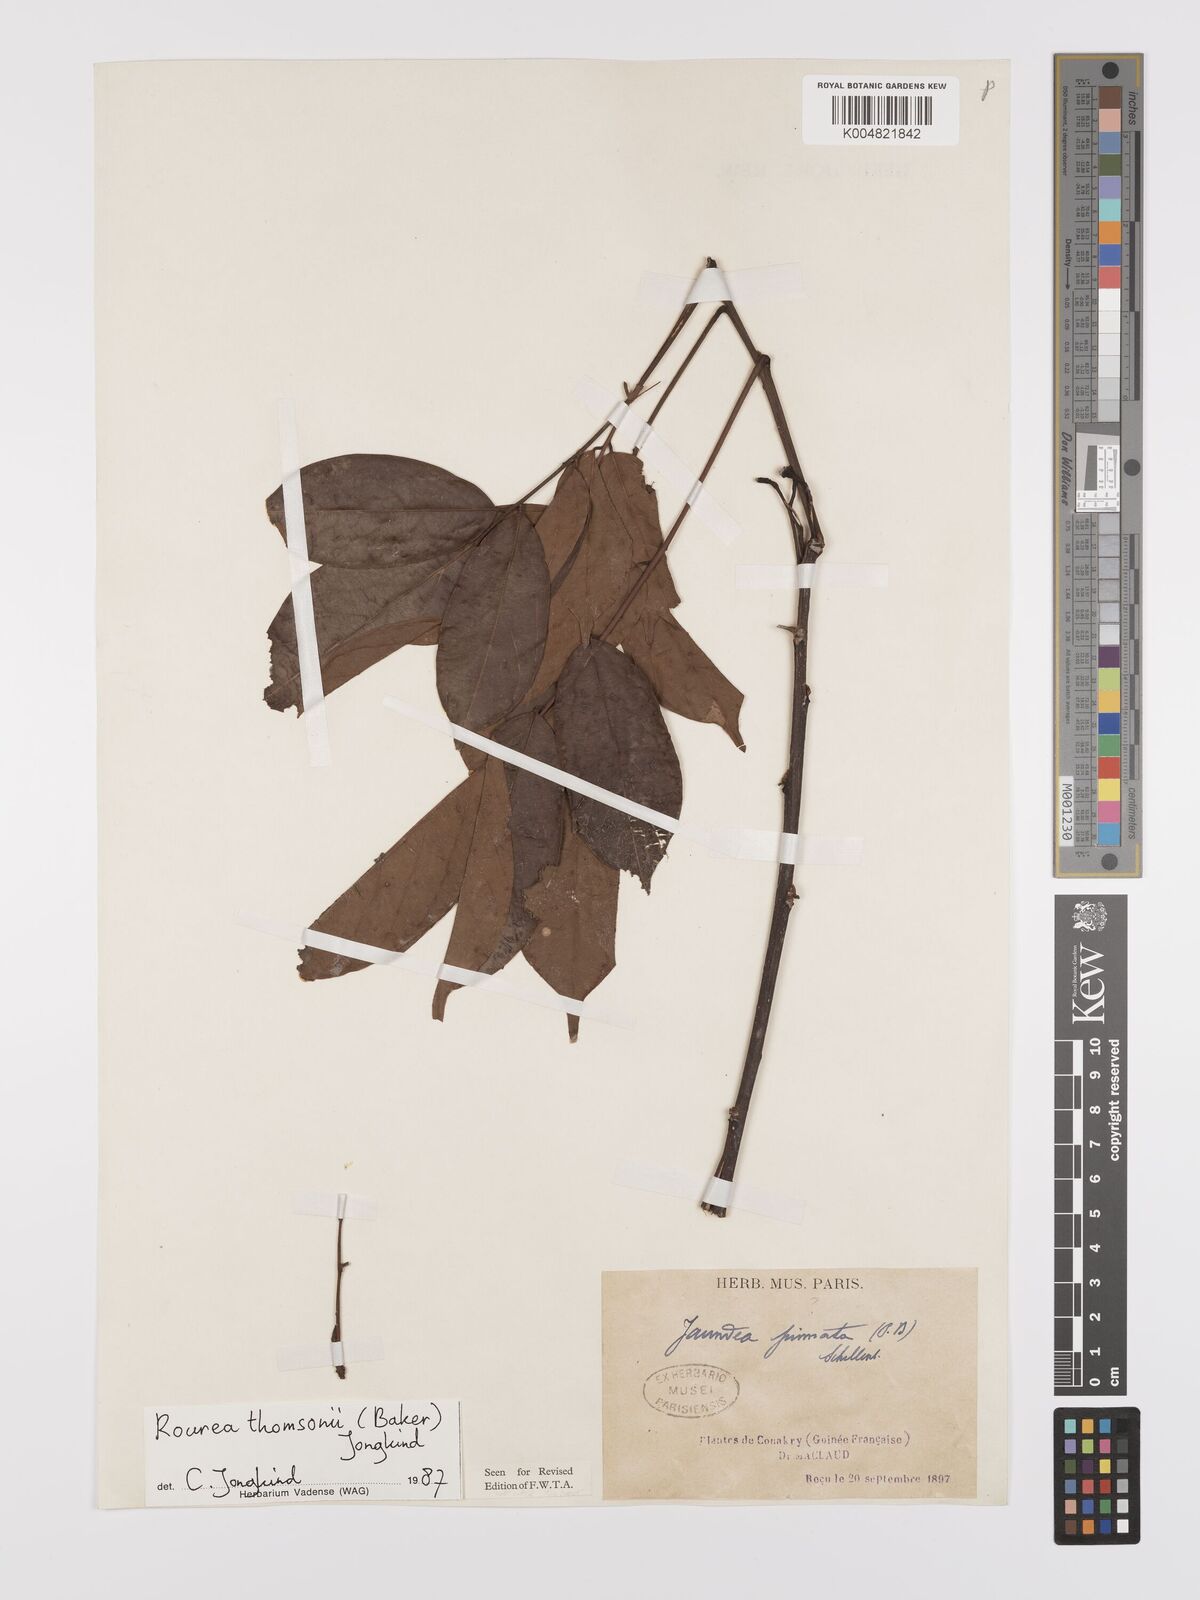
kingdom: Plantae
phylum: Tracheophyta
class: Magnoliopsida
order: Oxalidales
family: Connaraceae
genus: Rourea
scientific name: Rourea pinnata
